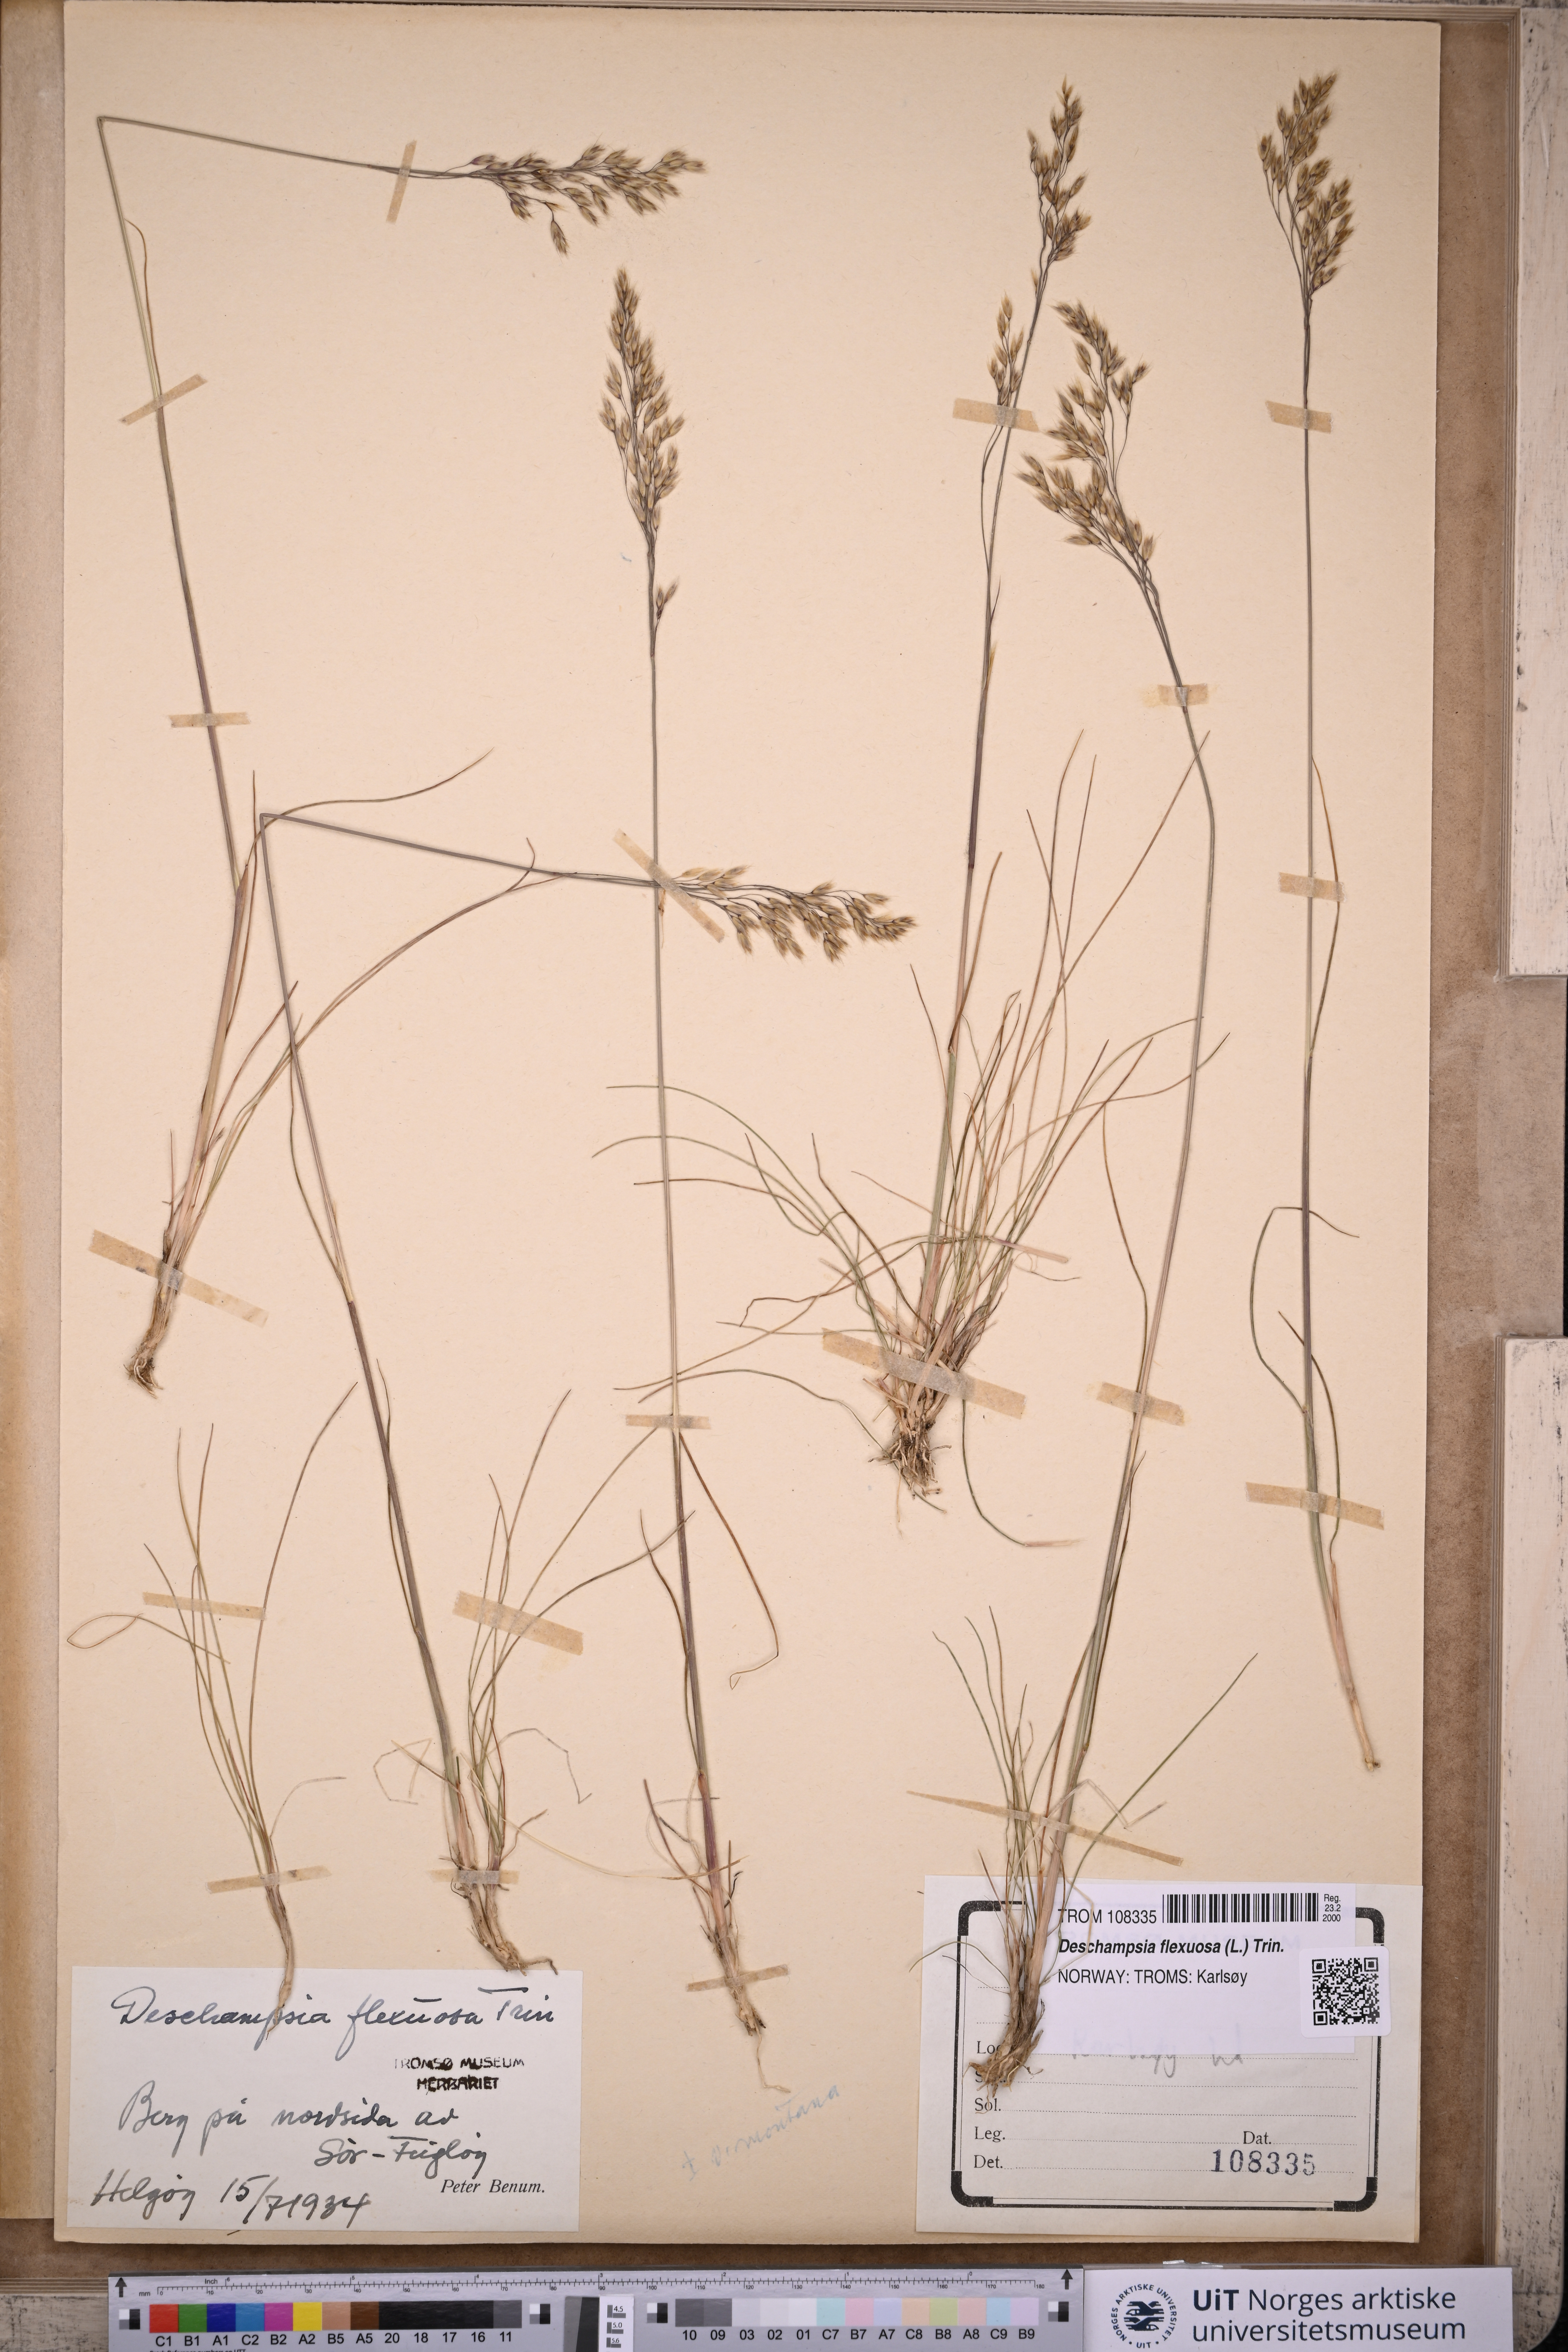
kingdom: Plantae
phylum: Tracheophyta
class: Liliopsida
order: Poales
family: Poaceae
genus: Avenella
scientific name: Avenella flexuosa
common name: Wavy hairgrass
